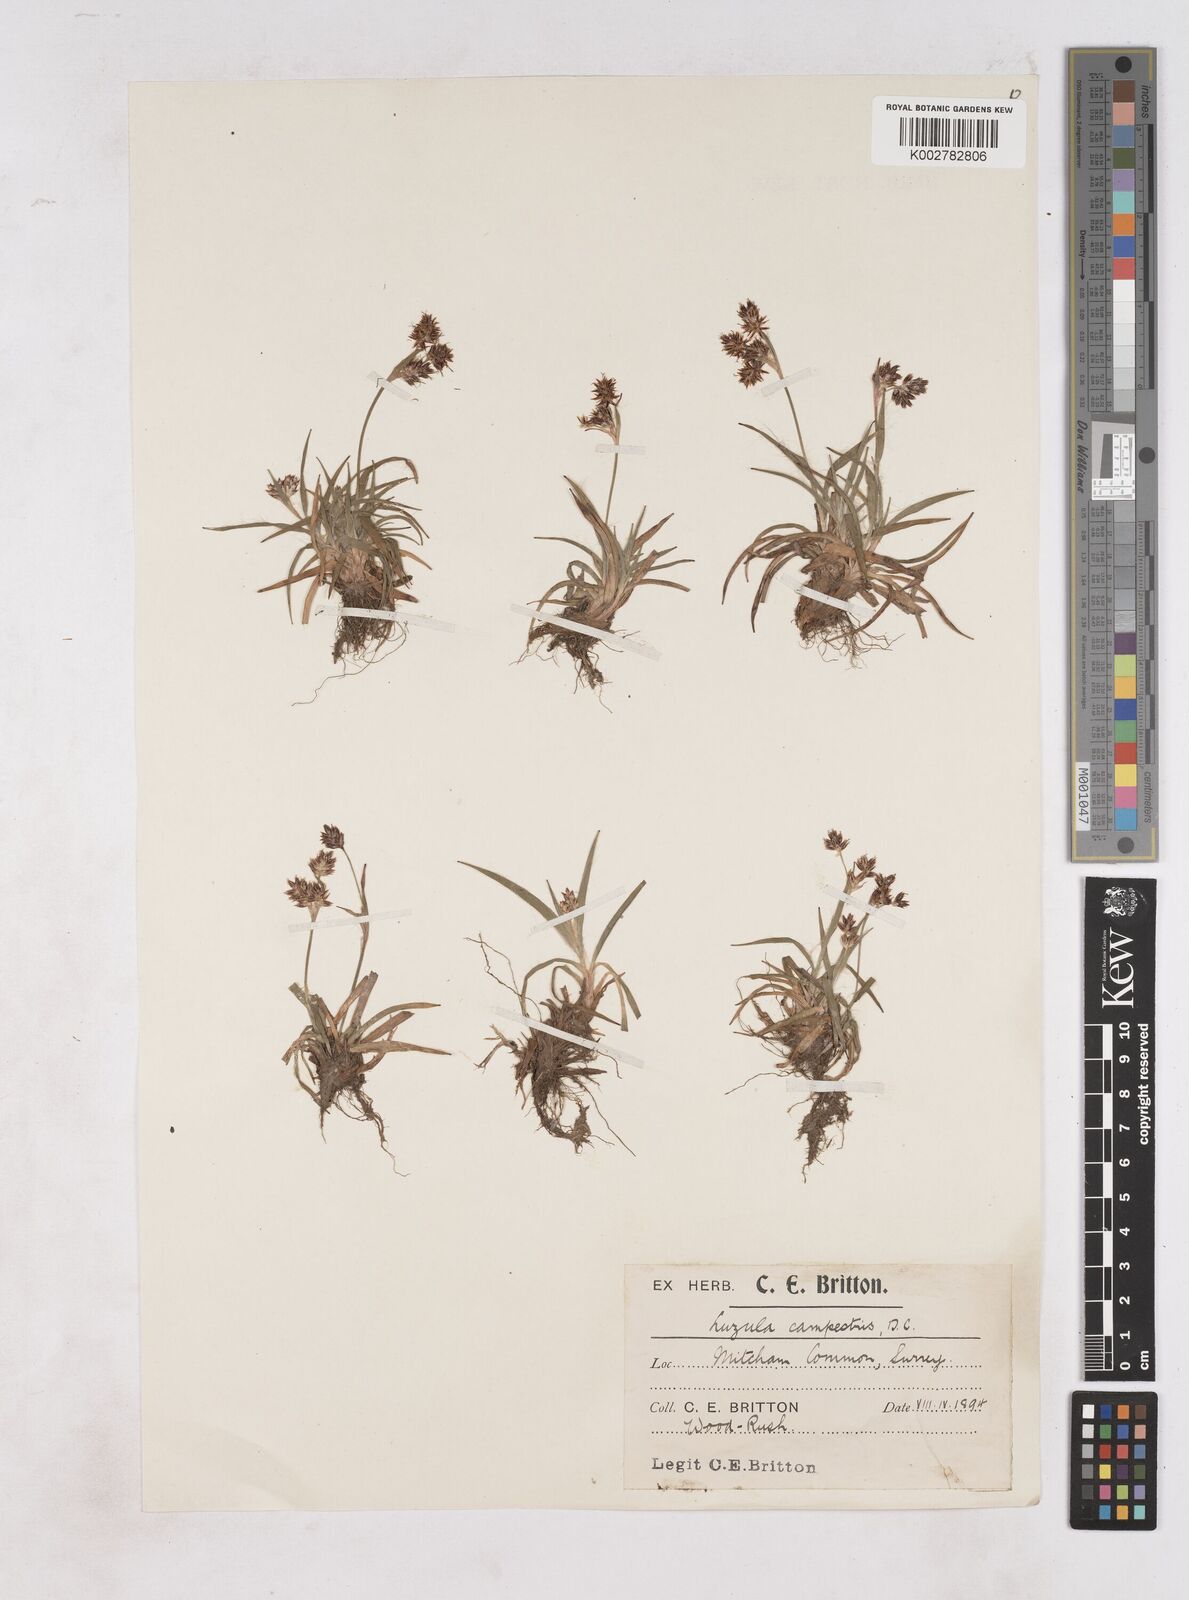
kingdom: Plantae
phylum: Tracheophyta
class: Liliopsida
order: Poales
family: Juncaceae
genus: Luzula
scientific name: Luzula campestris
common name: Field wood-rush
